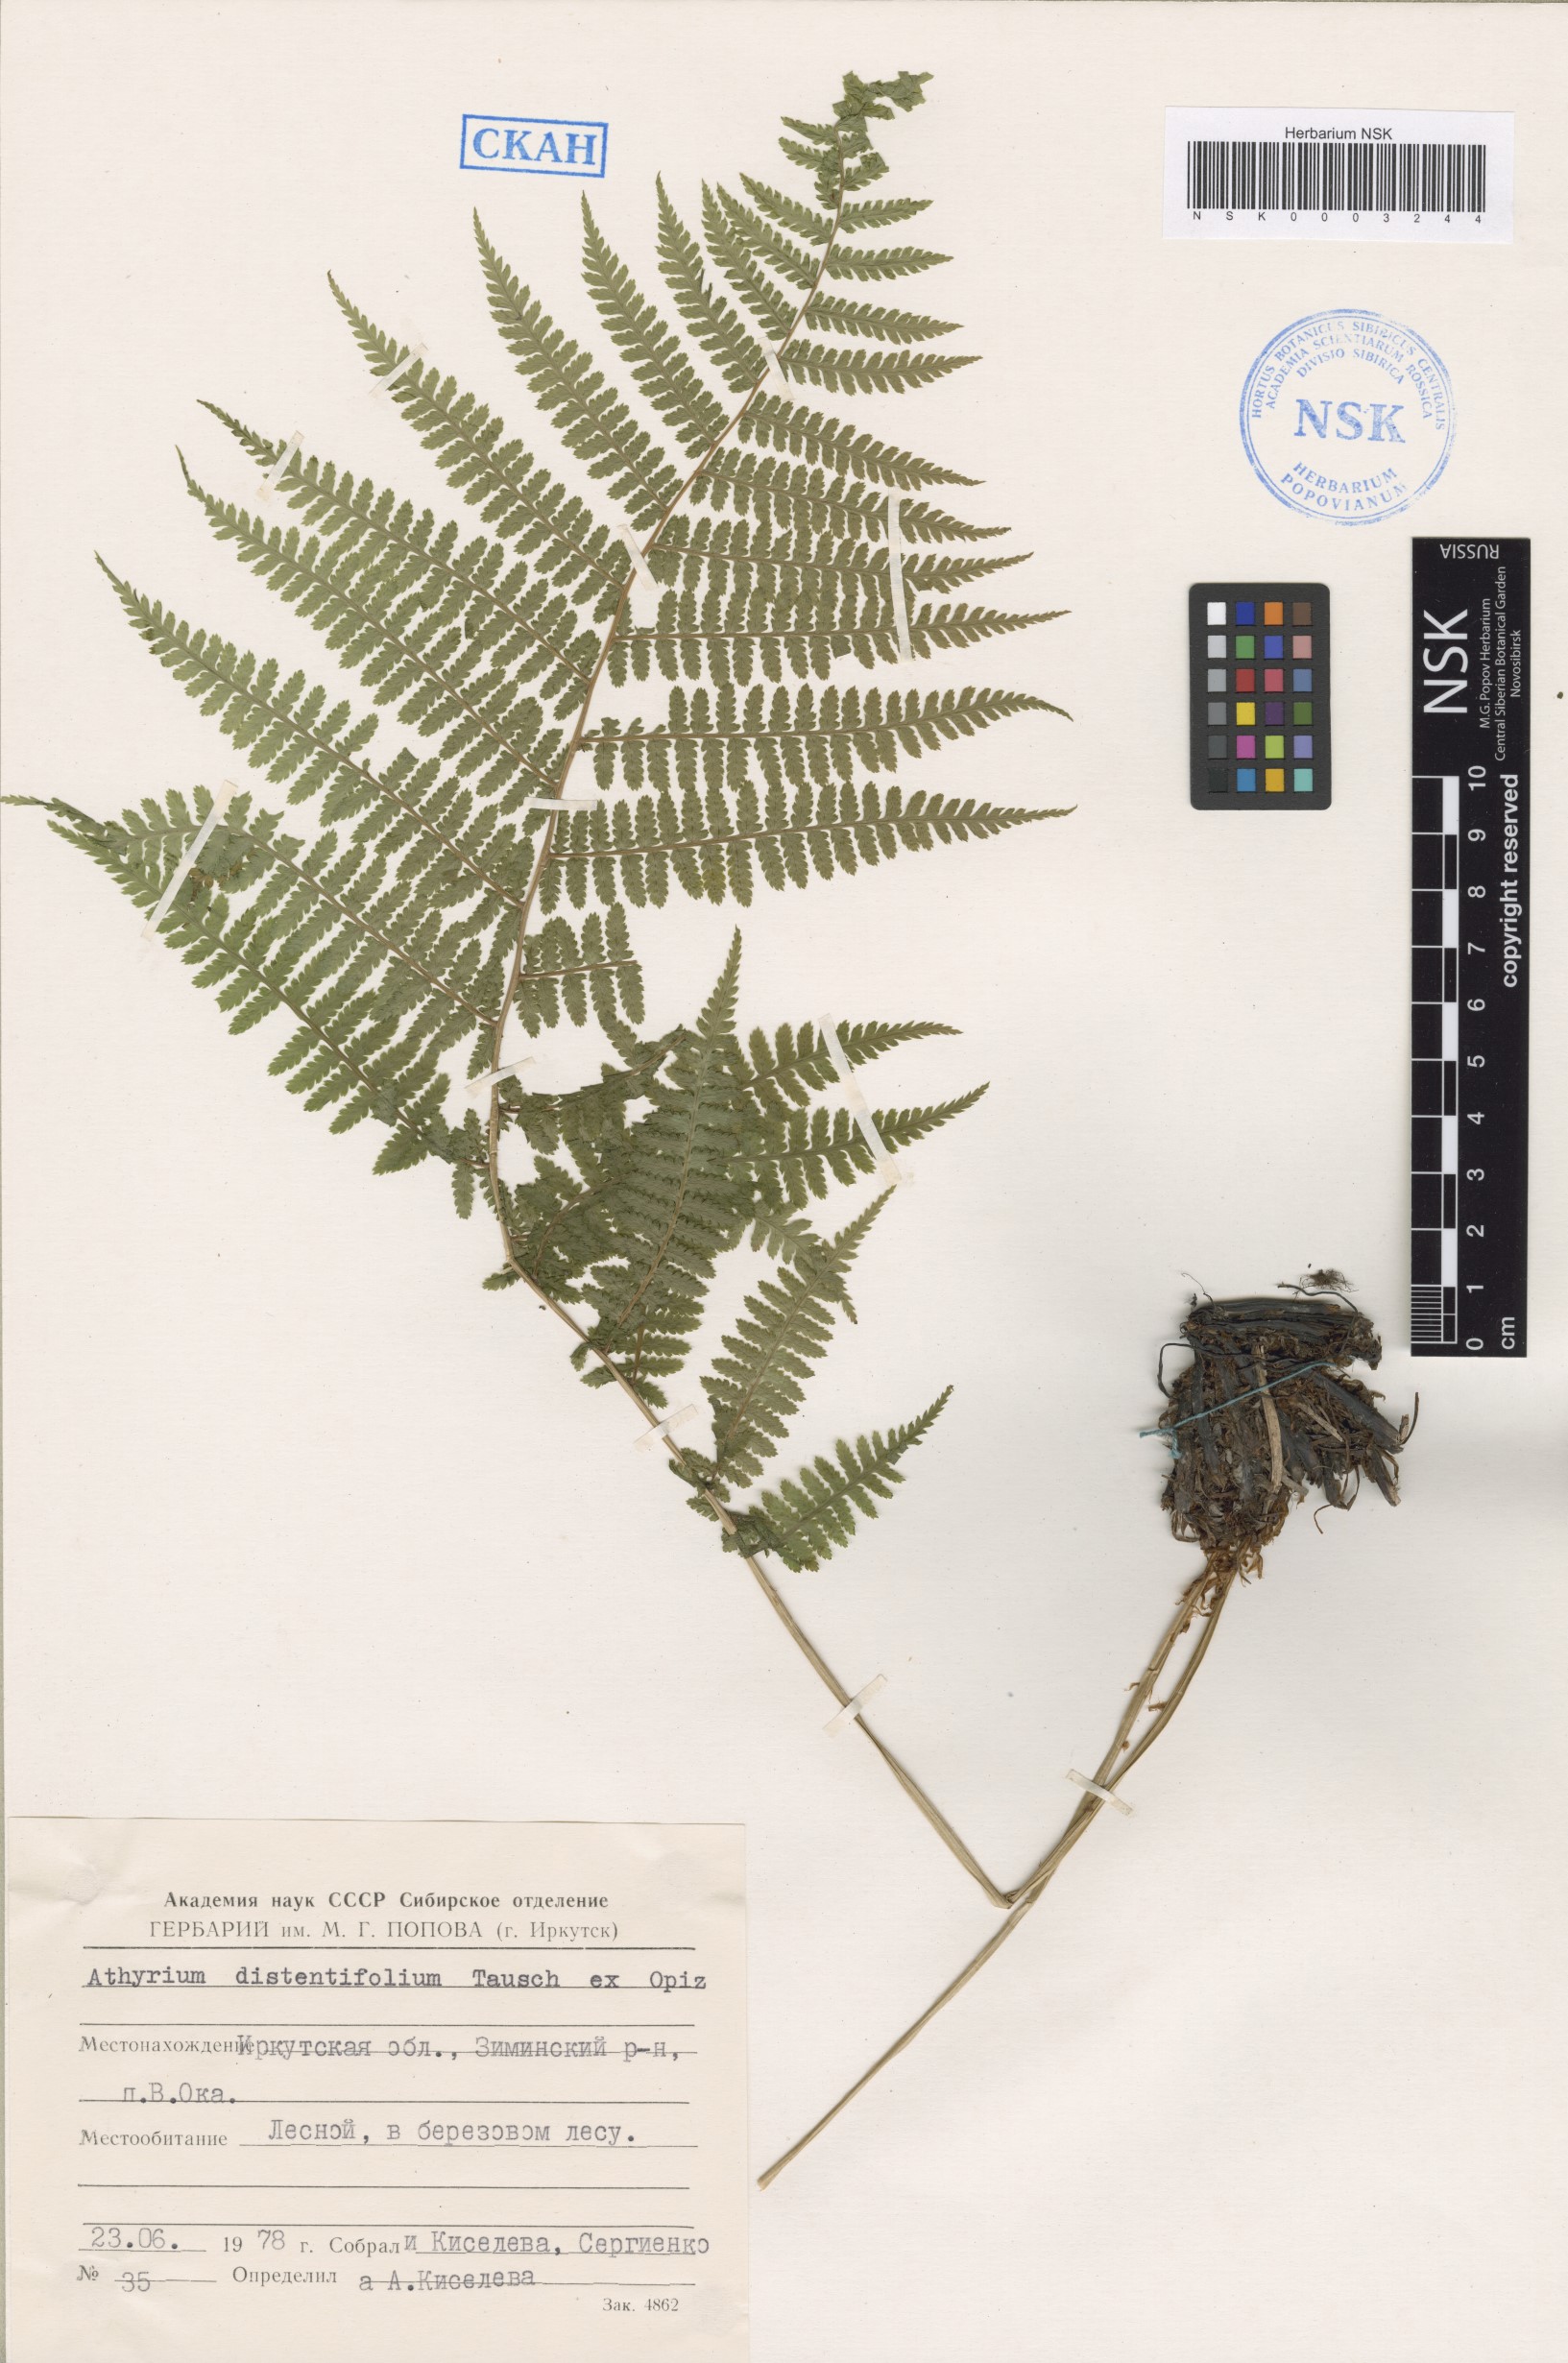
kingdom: Plantae
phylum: Tracheophyta
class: Polypodiopsida
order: Polypodiales
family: Athyriaceae
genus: Pseudathyrium
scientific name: Pseudathyrium alpestre
